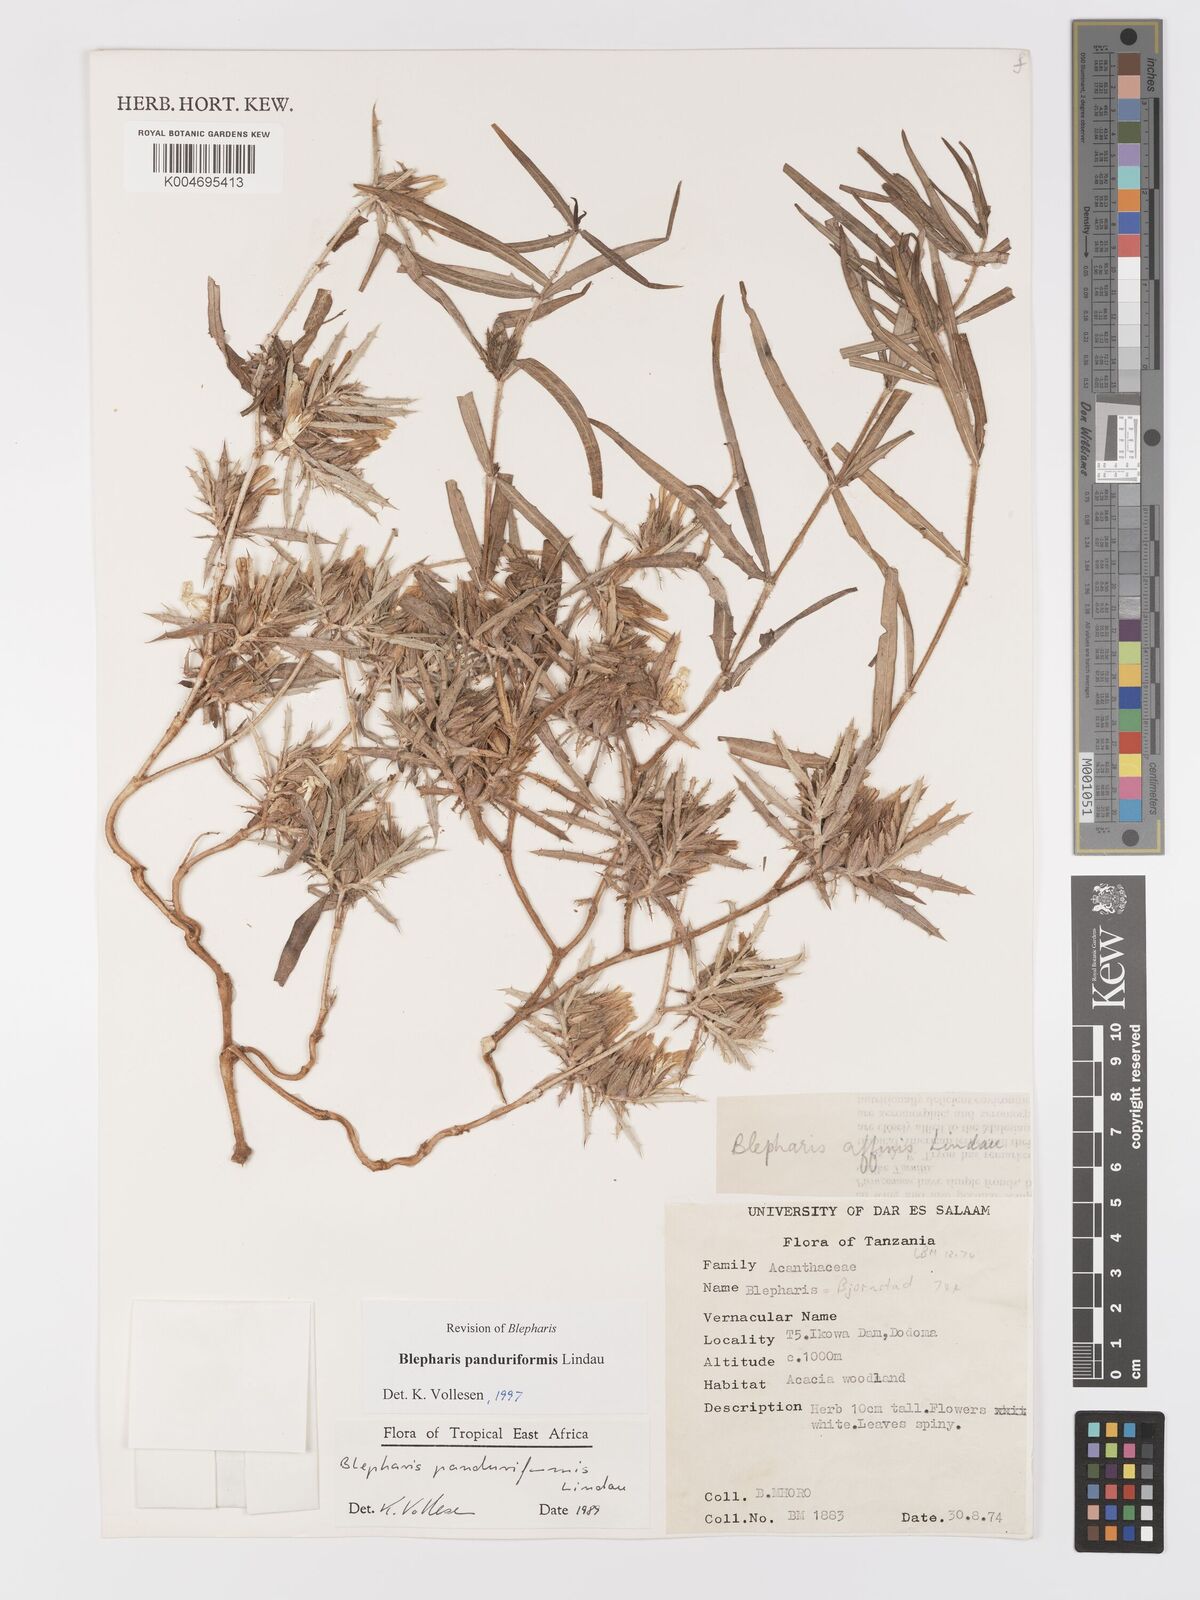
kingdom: Plantae
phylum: Tracheophyta
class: Magnoliopsida
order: Lamiales
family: Acanthaceae
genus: Blepharis
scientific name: Blepharis panduriformis
